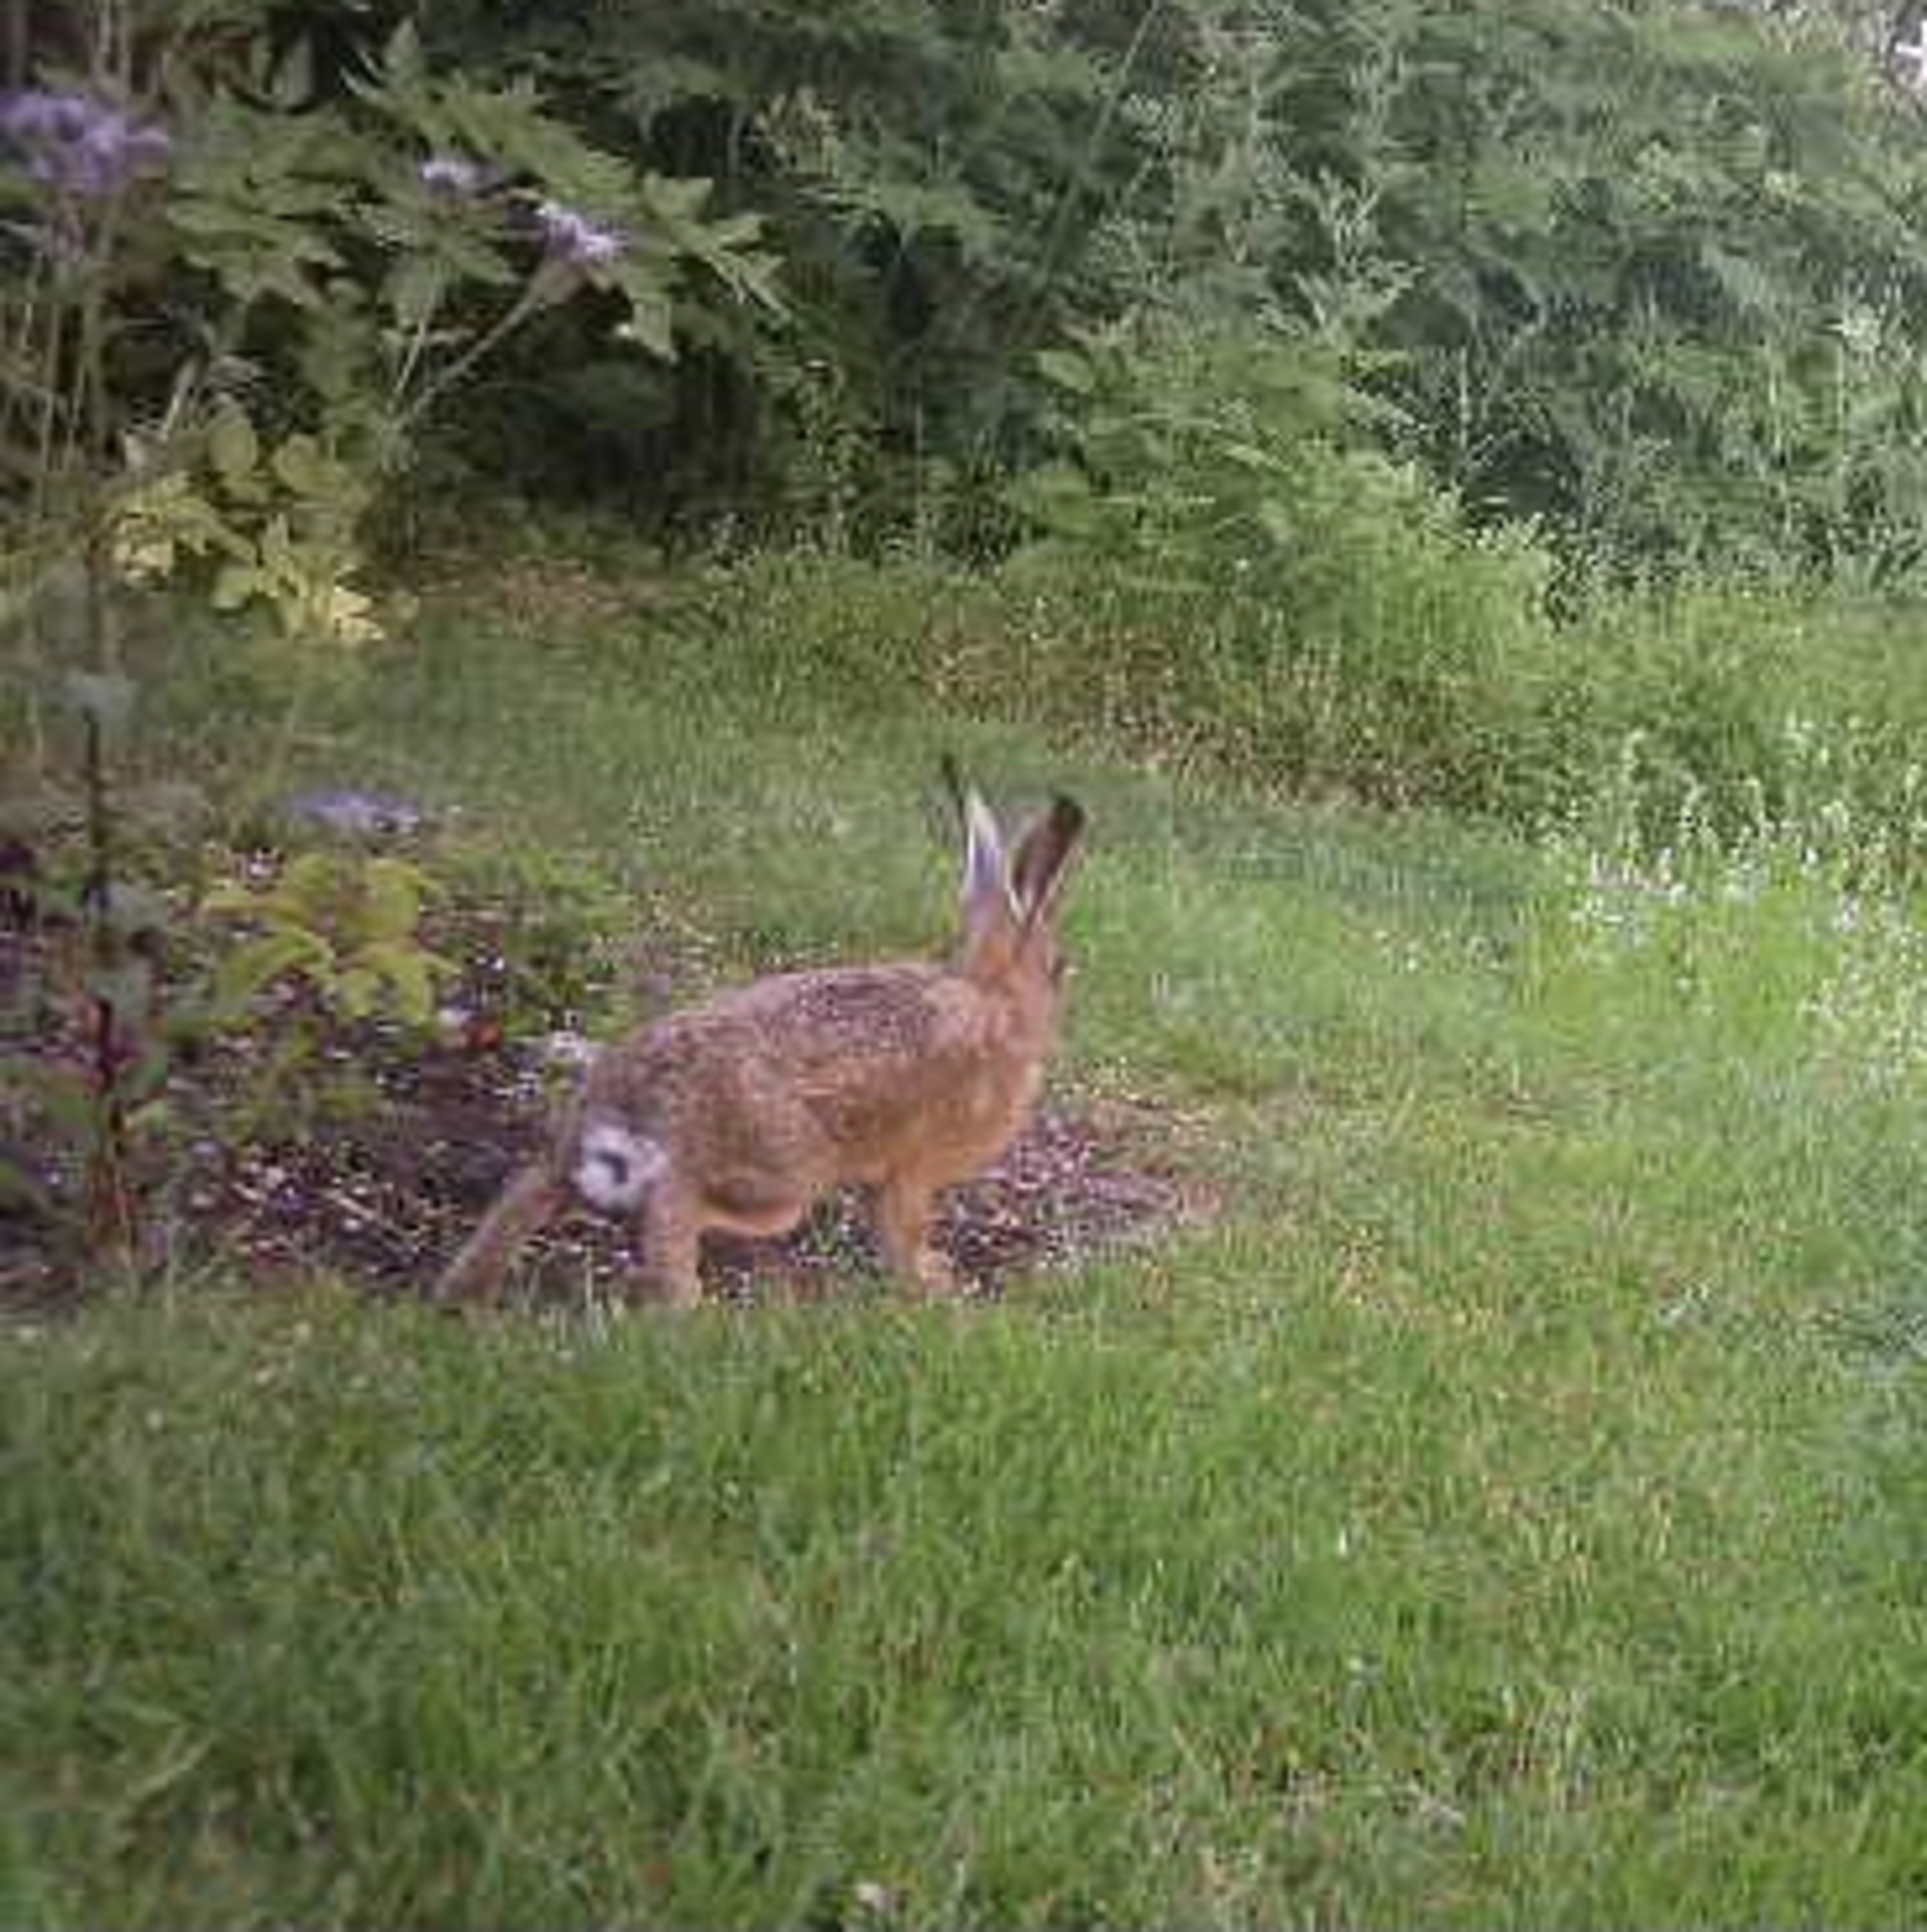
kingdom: Animalia
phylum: Chordata
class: Mammalia
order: Lagomorpha
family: Leporidae
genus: Lepus
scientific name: Lepus europaeus
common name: Hare
